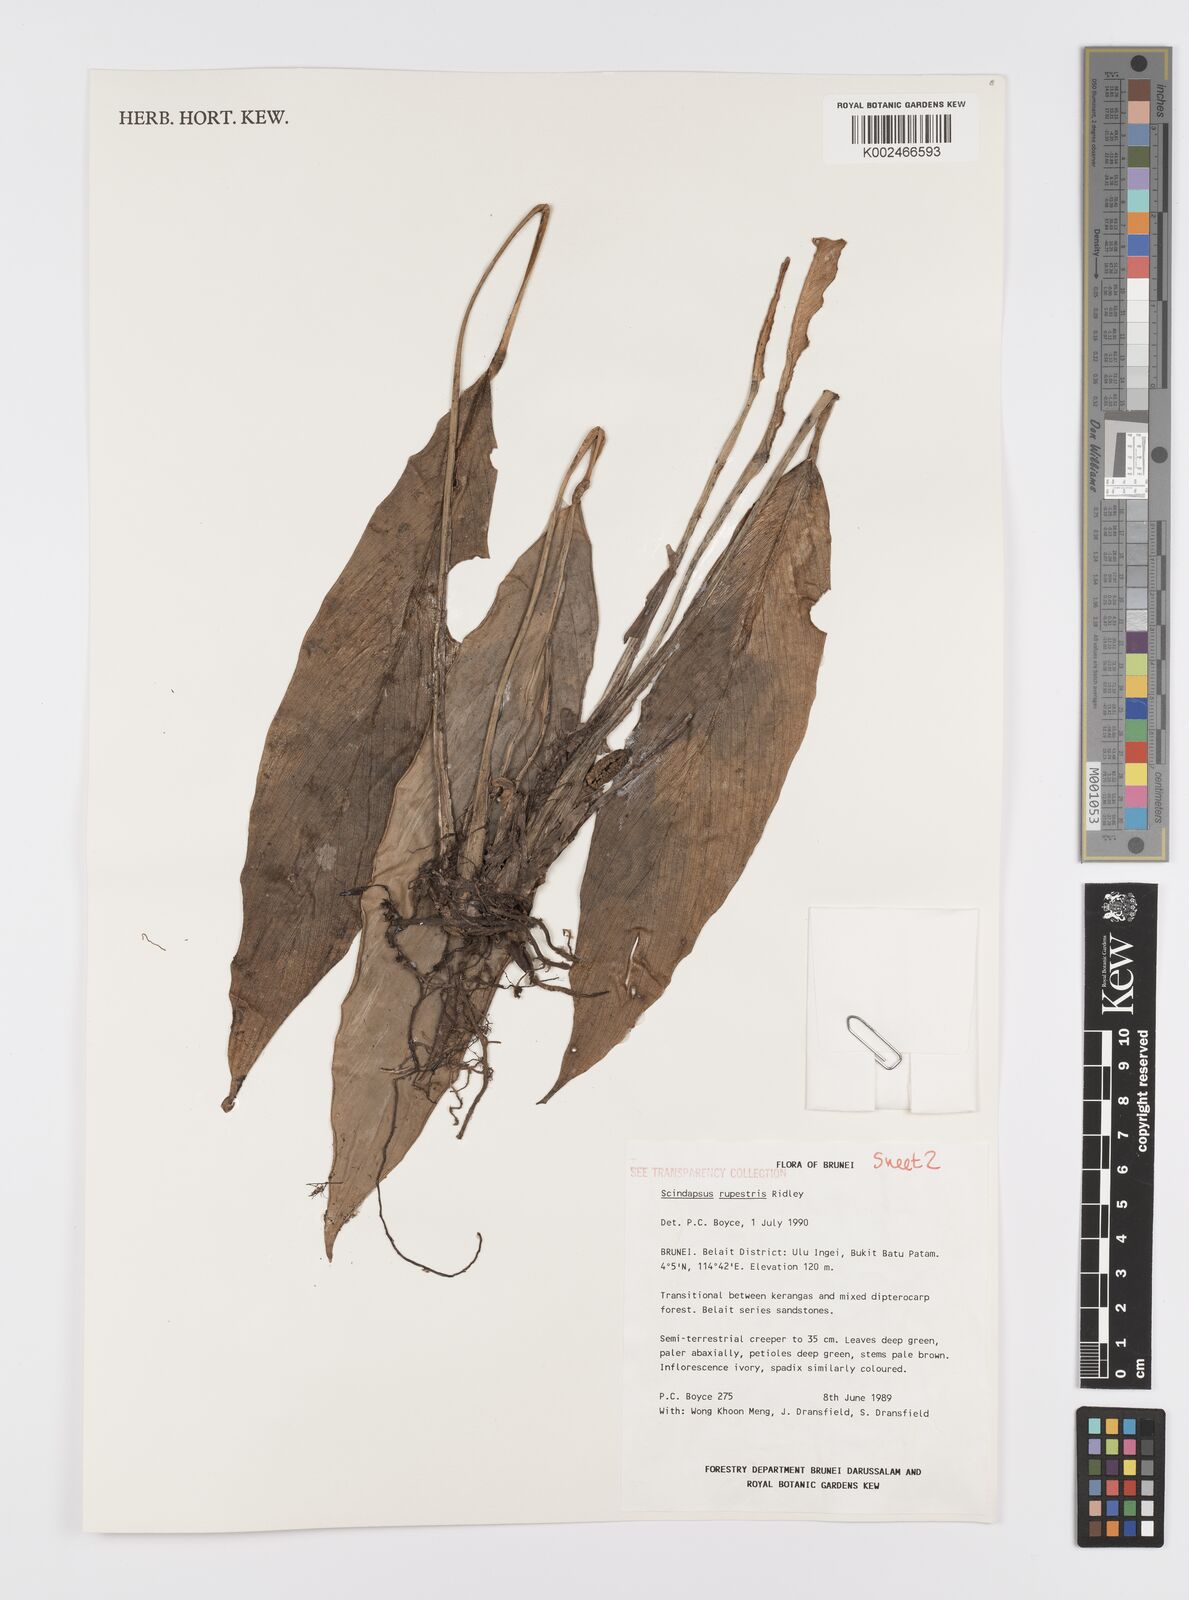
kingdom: Plantae
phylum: Tracheophyta
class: Liliopsida
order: Alismatales
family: Araceae
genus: Scindapsus
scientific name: Scindapsus sumatranus
